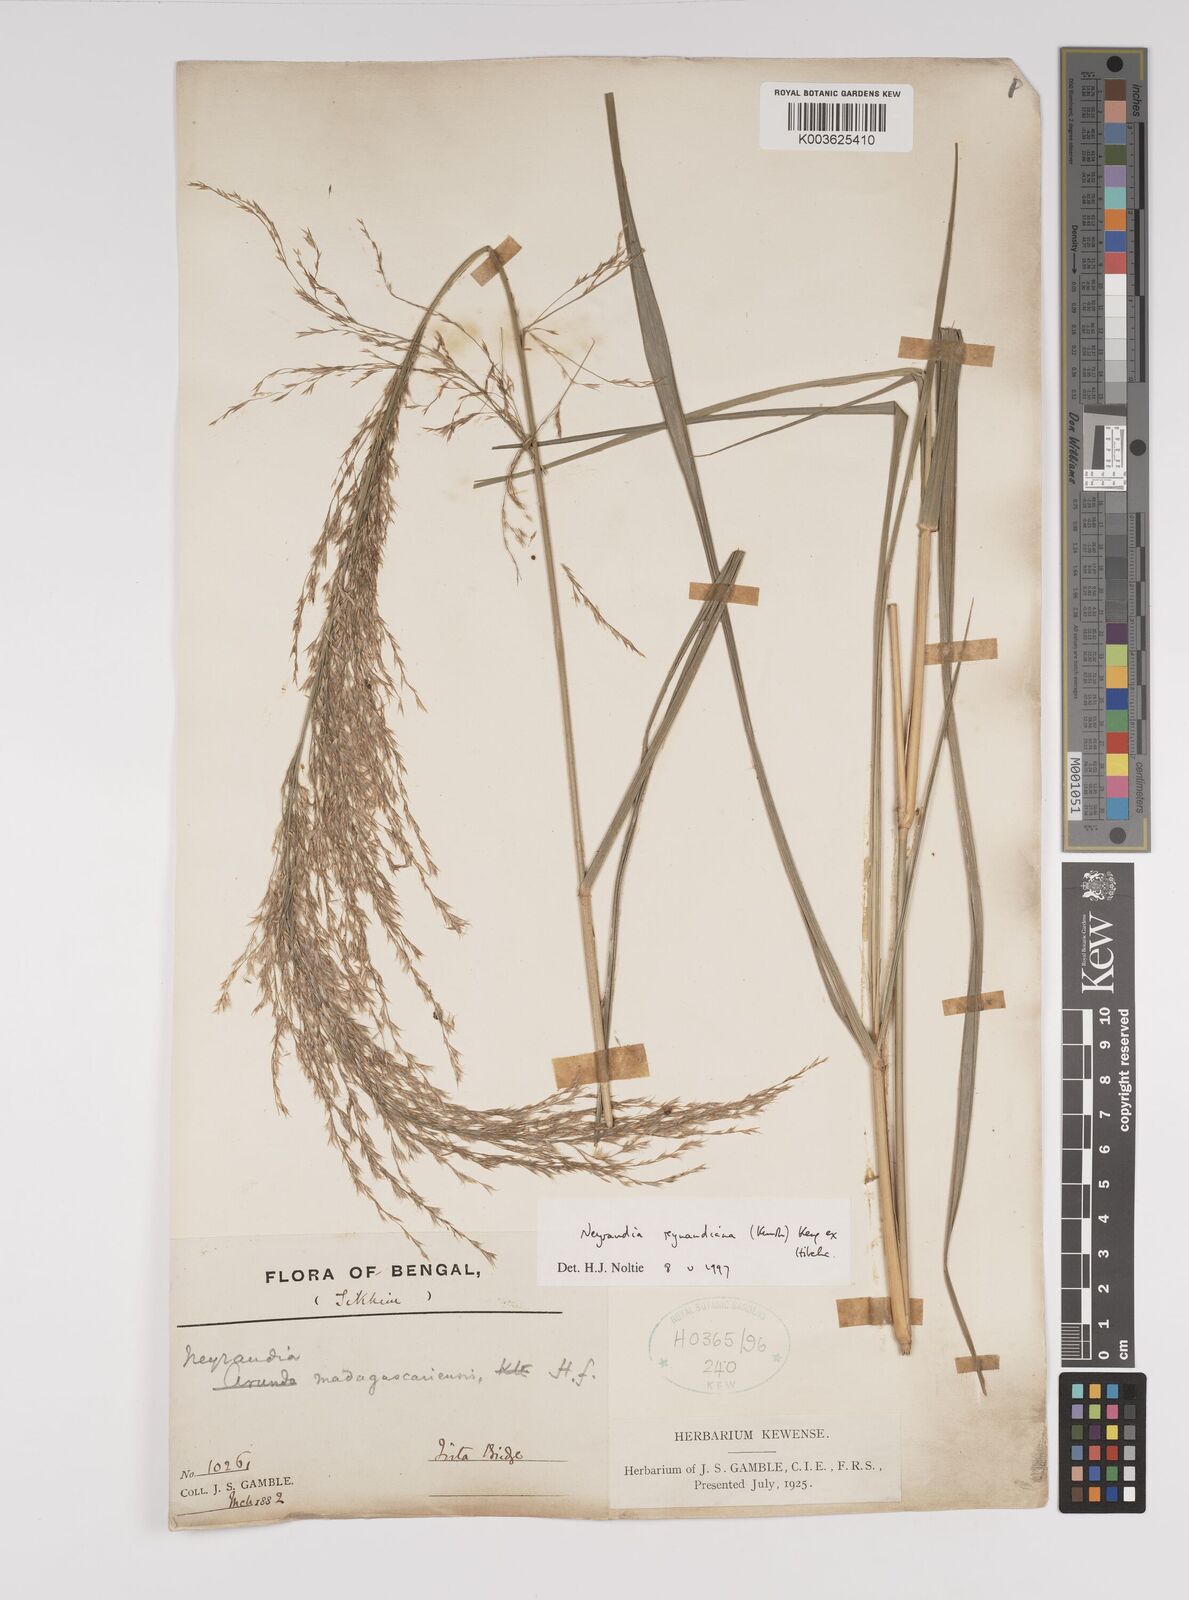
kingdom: Plantae
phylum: Tracheophyta
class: Liliopsida
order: Poales
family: Poaceae
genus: Neyraudia
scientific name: Neyraudia reynaudiana
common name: Silkreed
